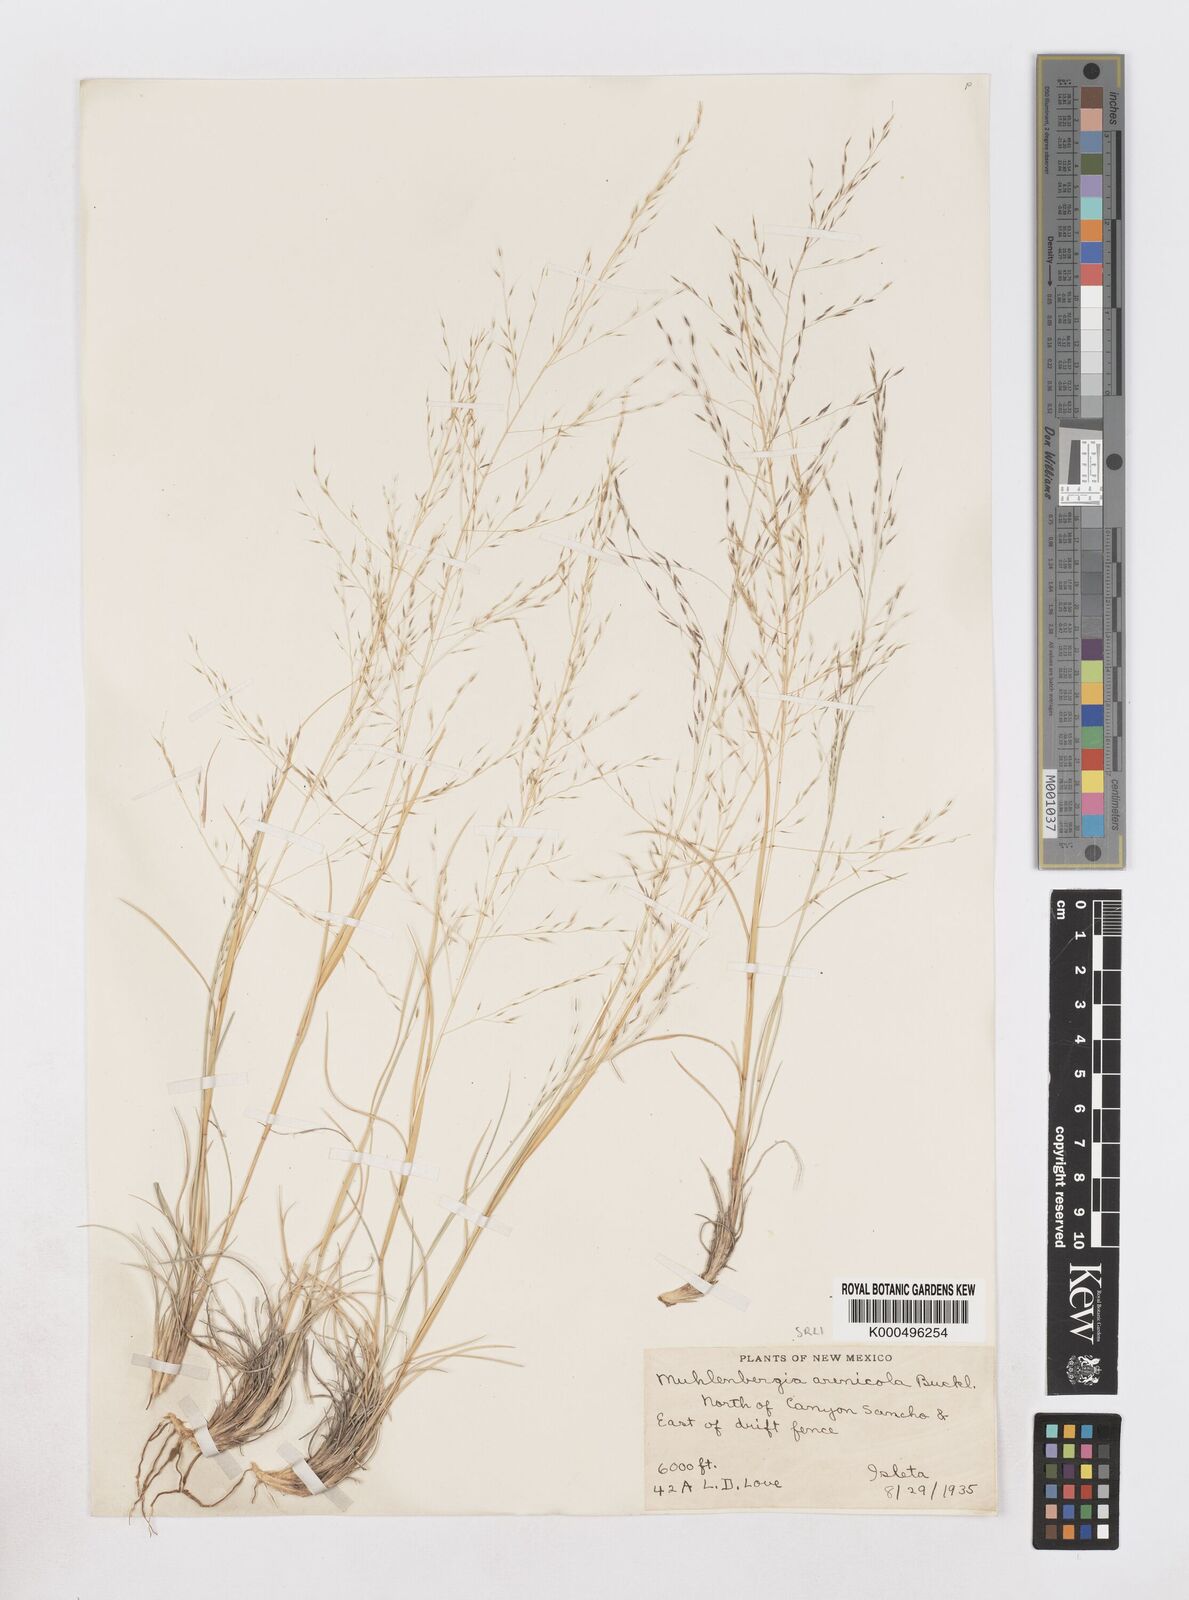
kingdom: Plantae
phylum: Tracheophyta
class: Liliopsida
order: Poales
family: Poaceae
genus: Muhlenbergia
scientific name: Muhlenbergia arenicola
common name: Sand muhly
